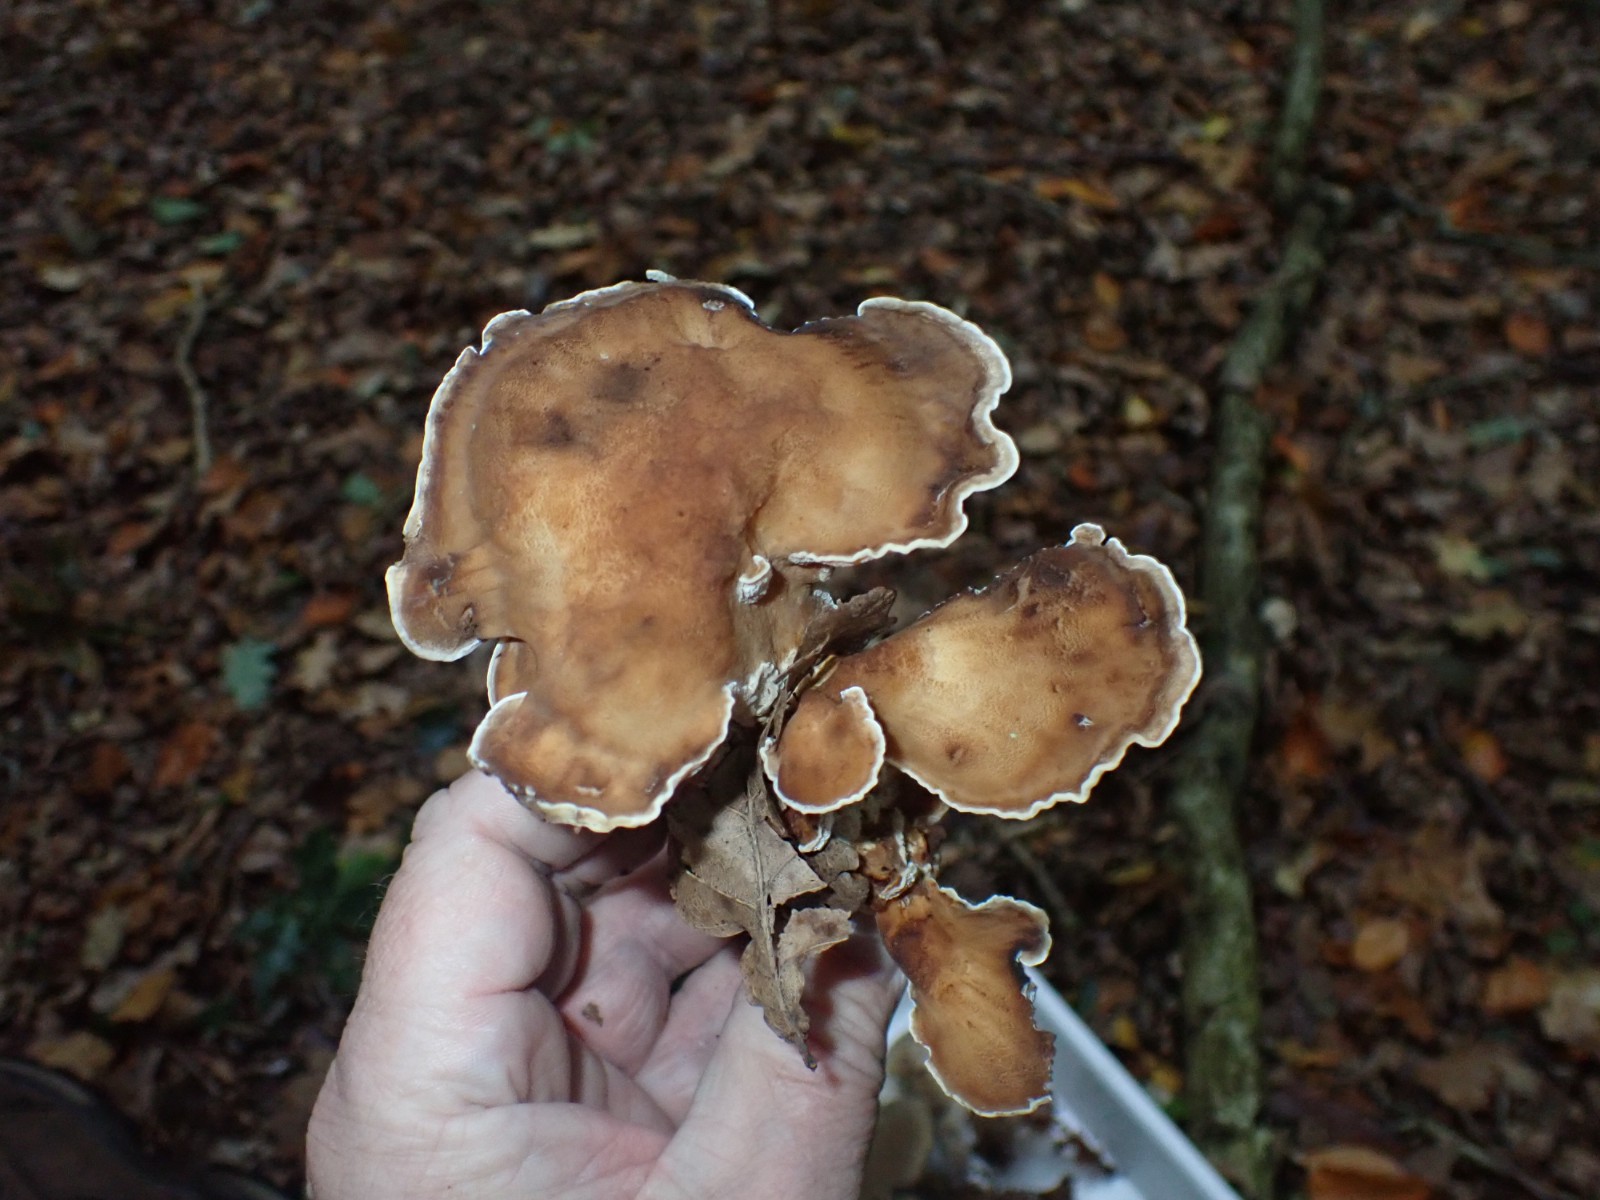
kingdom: Fungi
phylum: Basidiomycota
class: Agaricomycetes
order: Polyporales
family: Meripilaceae
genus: Meripilus
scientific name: Meripilus giganteus
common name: kæmpeporesvamp
